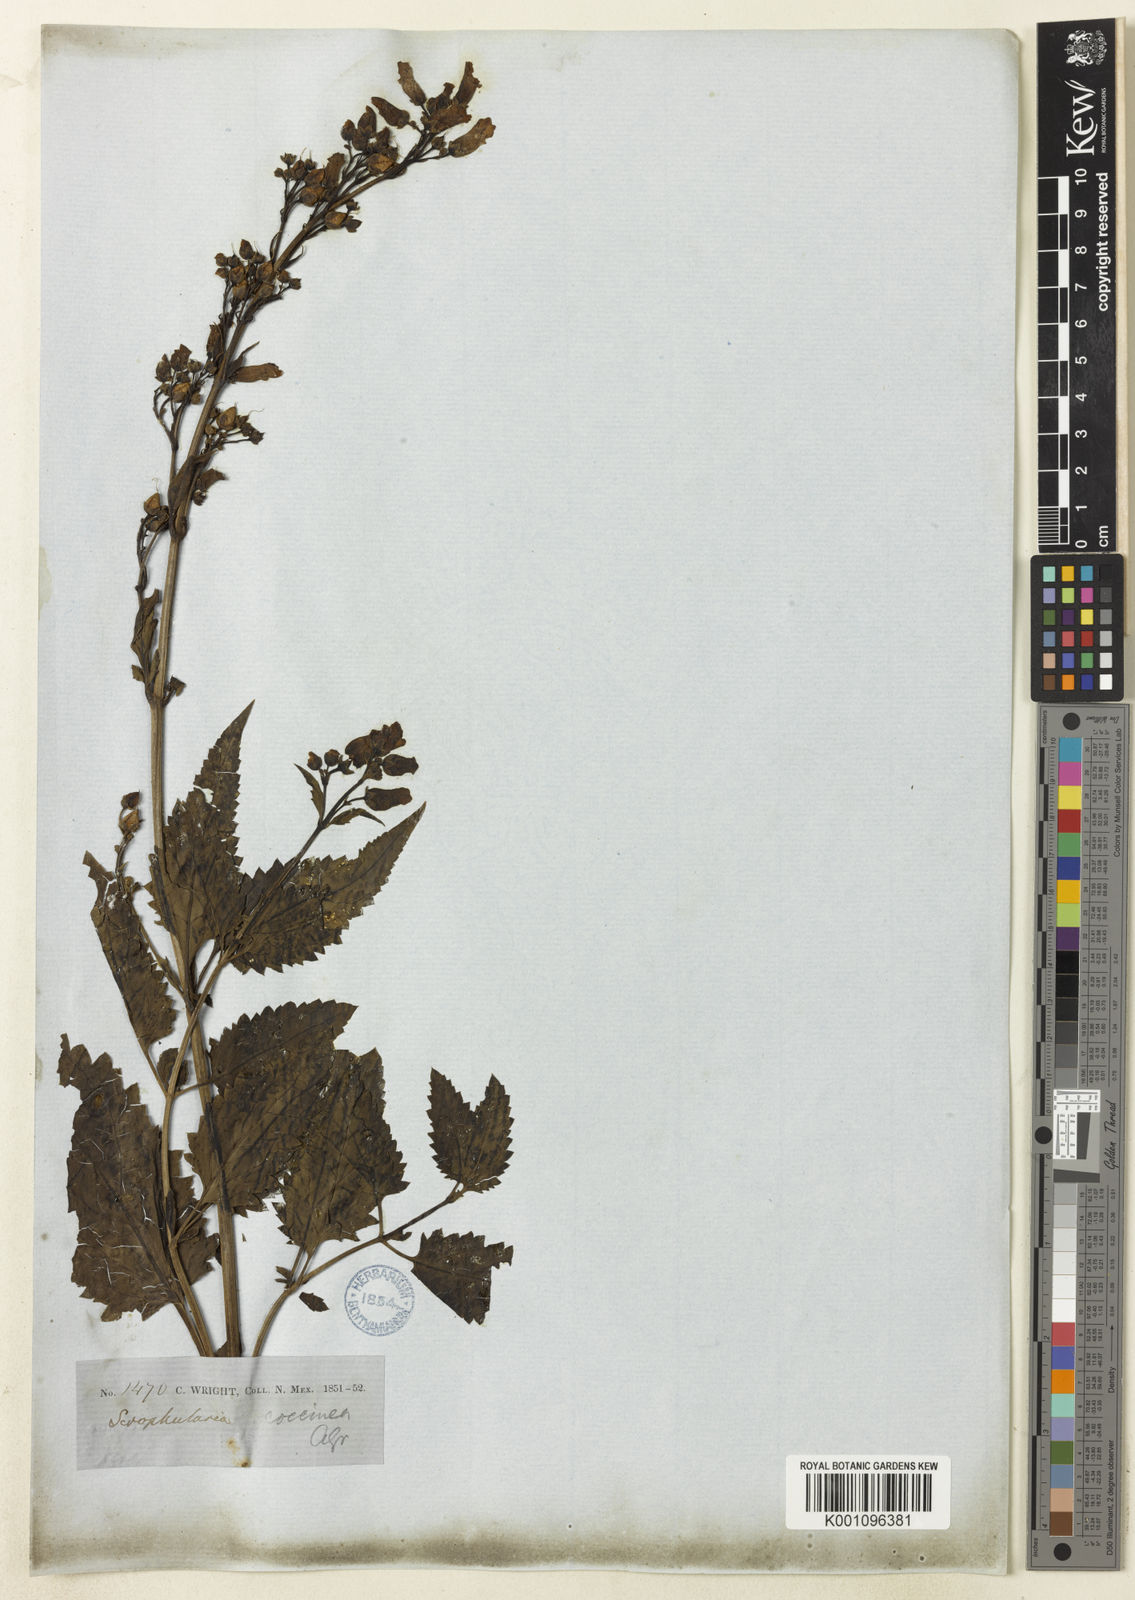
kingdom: Plantae
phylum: Tracheophyta
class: Magnoliopsida
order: Lamiales
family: Scrophulariaceae
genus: Scrophularia
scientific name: Scrophularia
